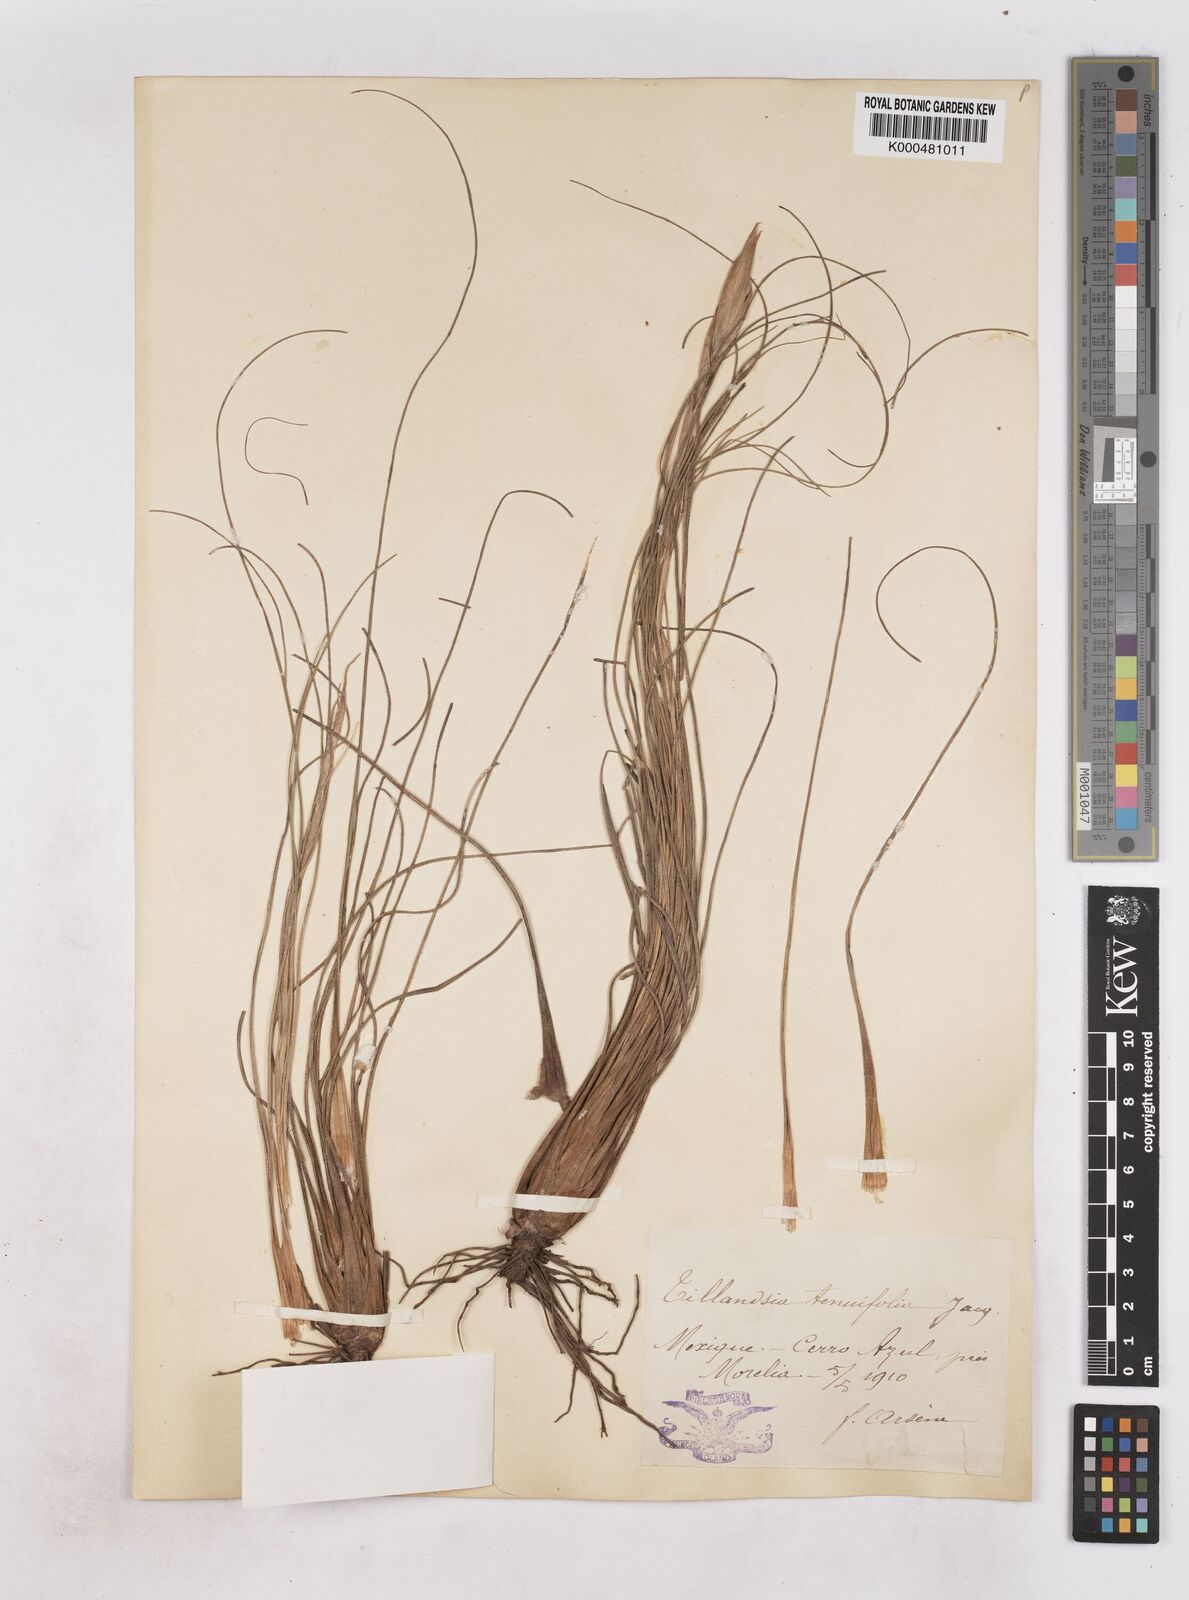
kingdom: Plantae
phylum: Tracheophyta
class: Liliopsida
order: Poales
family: Bromeliaceae
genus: Tillandsia
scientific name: Tillandsia sessemocinoi
